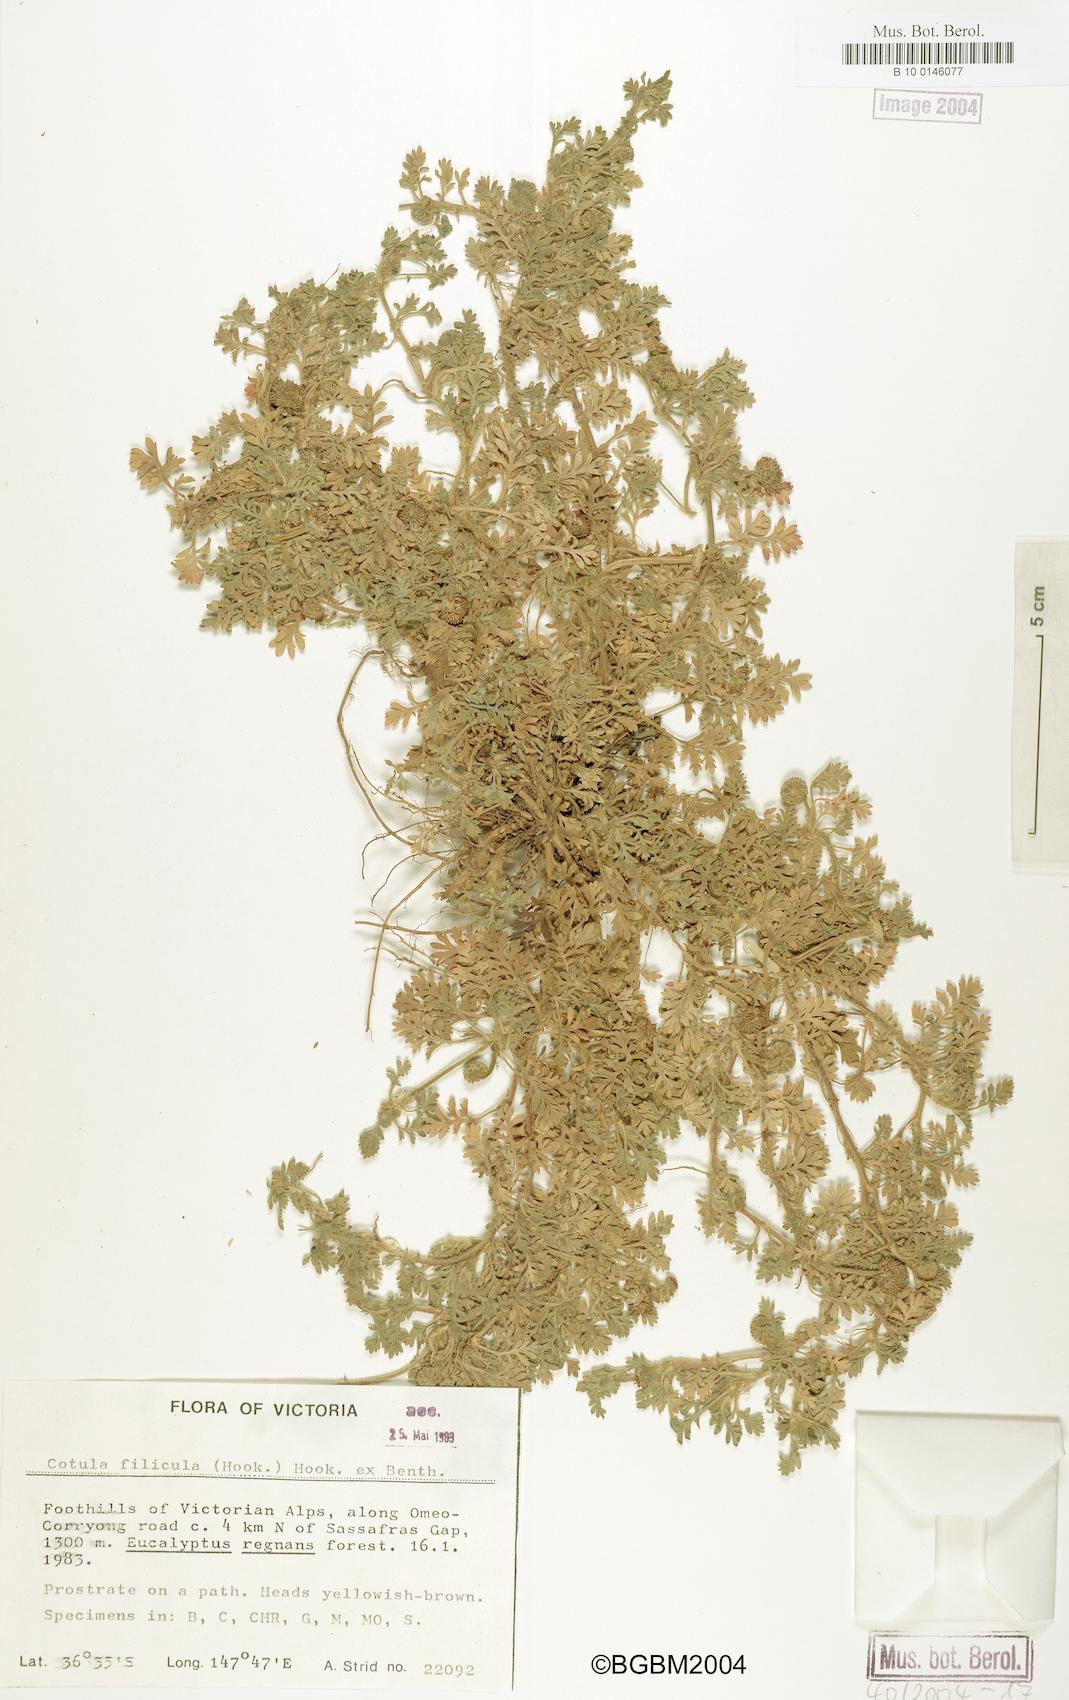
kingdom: Plantae
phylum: Tracheophyta
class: Magnoliopsida
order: Asterales
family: Asteraceae
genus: Cotula
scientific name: Cotula filicula
